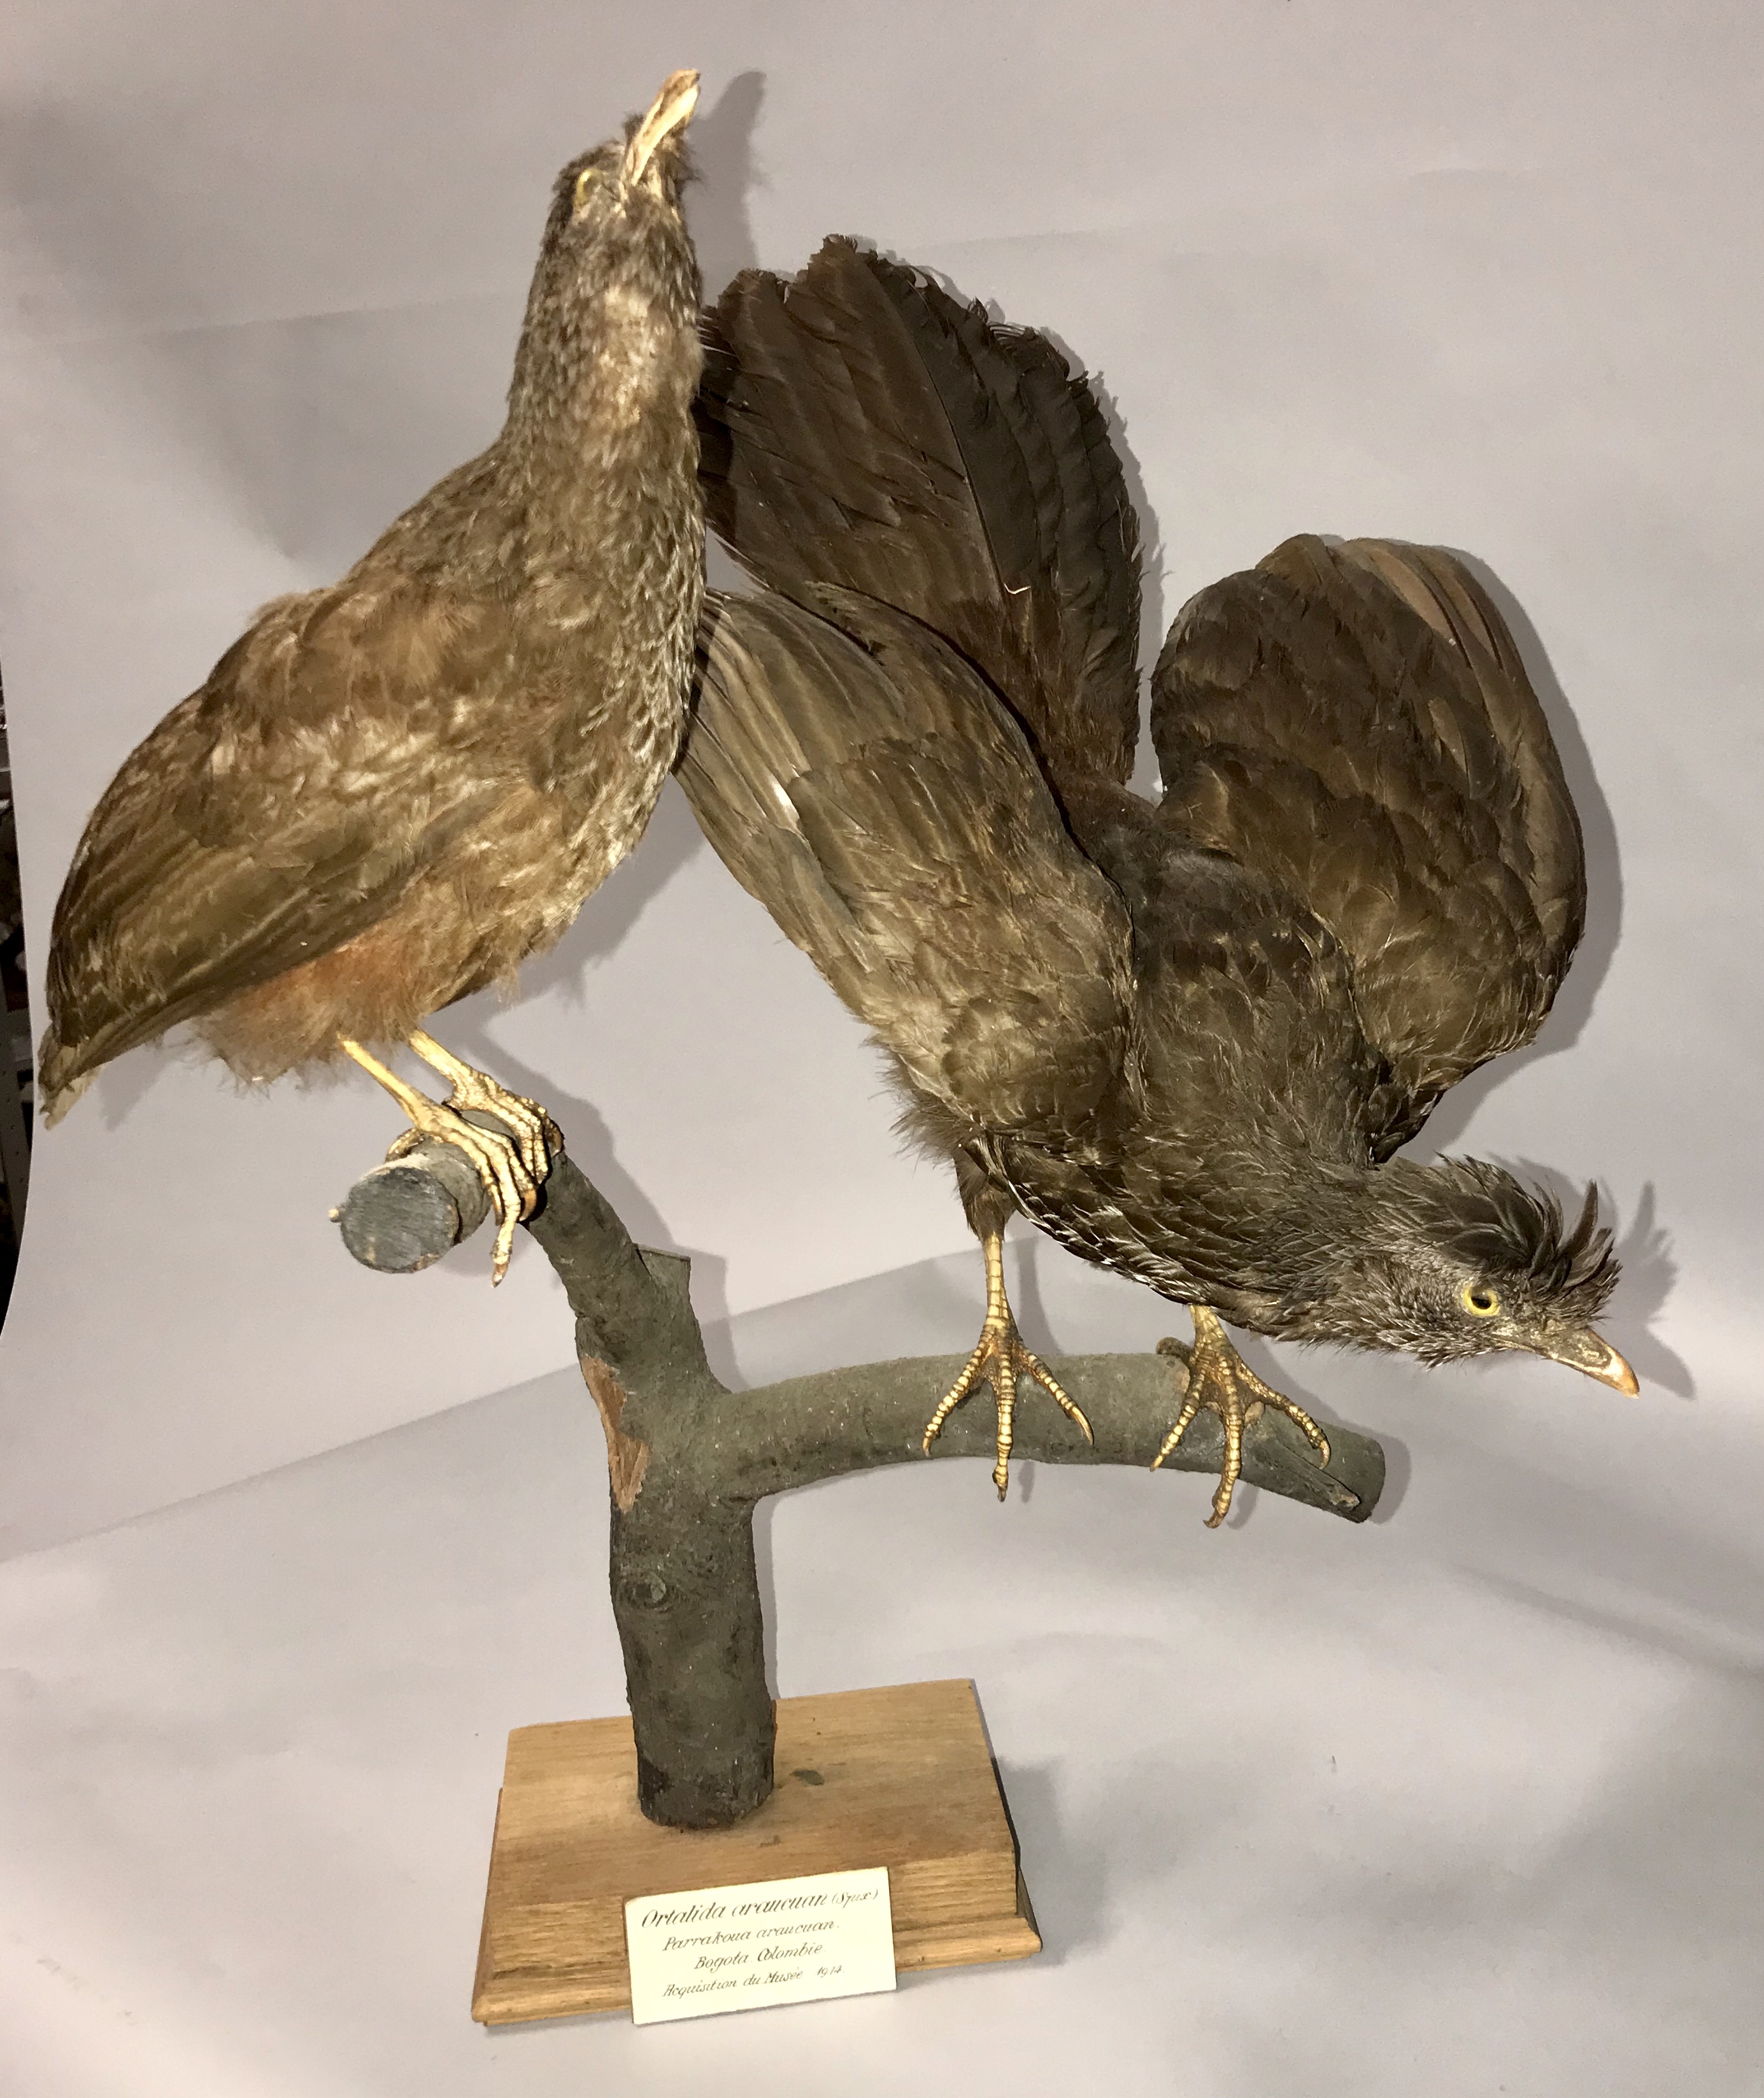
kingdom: Animalia
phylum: Chordata
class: Aves
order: Galliformes
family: Cracidae
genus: Penelope
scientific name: Penelope montagnii
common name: Andean guan
